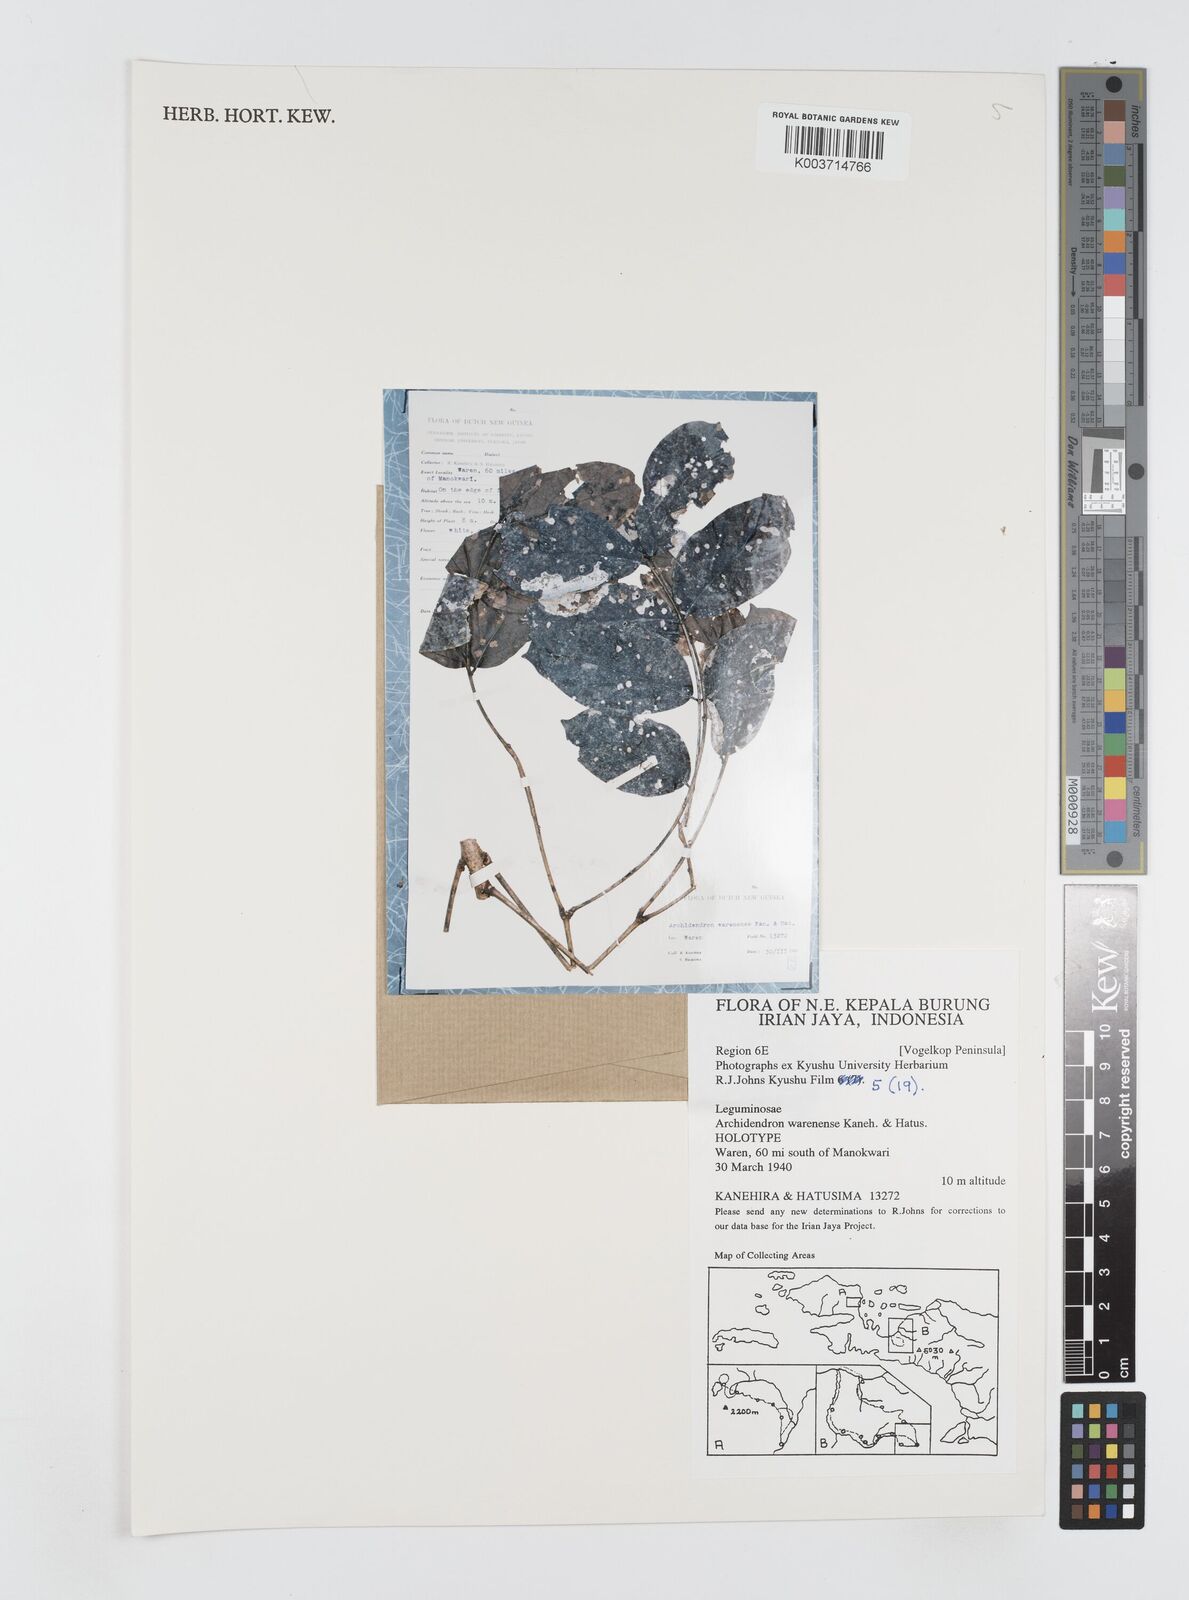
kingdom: Plantae
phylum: Tracheophyta
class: Magnoliopsida
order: Fabales
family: Fabaceae
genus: Archidendron
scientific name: Archidendron parviflorum
